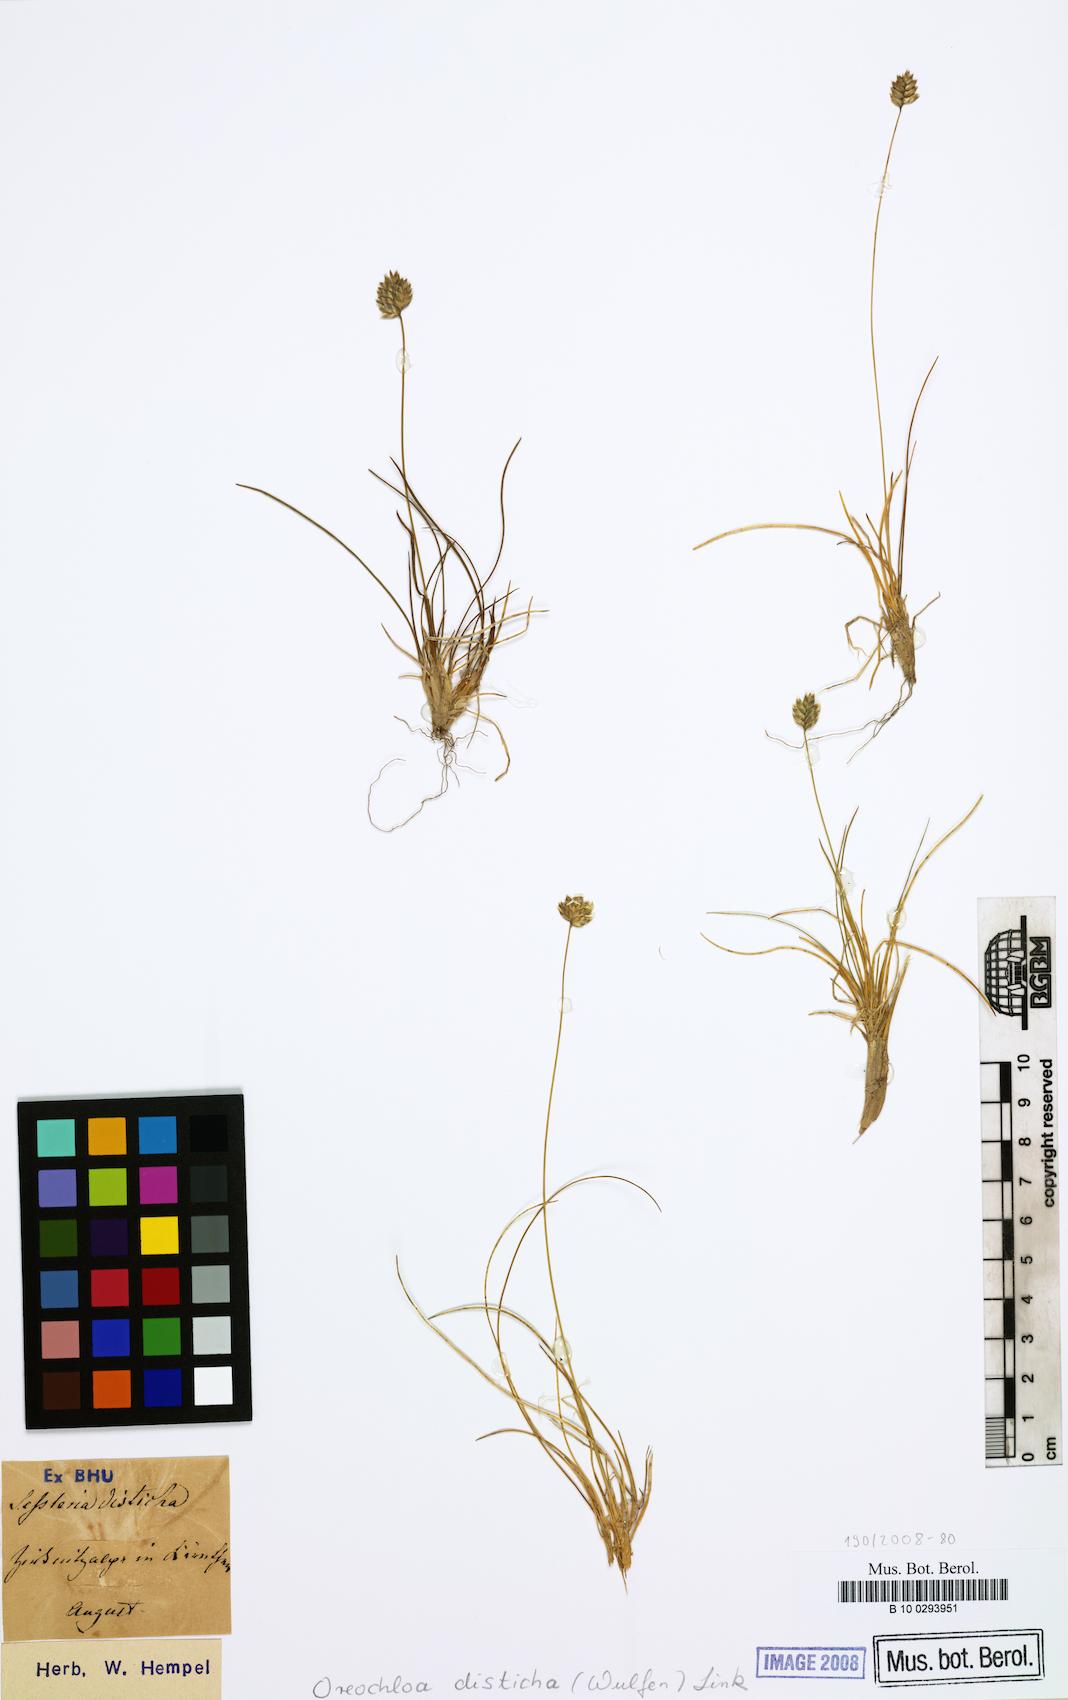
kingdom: Plantae
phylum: Tracheophyta
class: Liliopsida
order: Poales
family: Poaceae
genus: Oreochloa
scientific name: Oreochloa disticha
